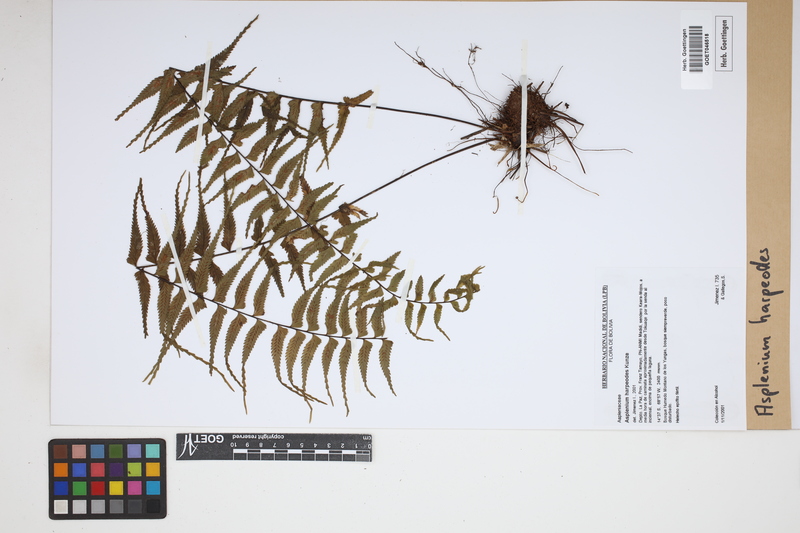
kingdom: Plantae
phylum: Tracheophyta
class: Polypodiopsida
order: Polypodiales
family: Aspleniaceae
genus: Asplenium
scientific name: Asplenium harpeodes
